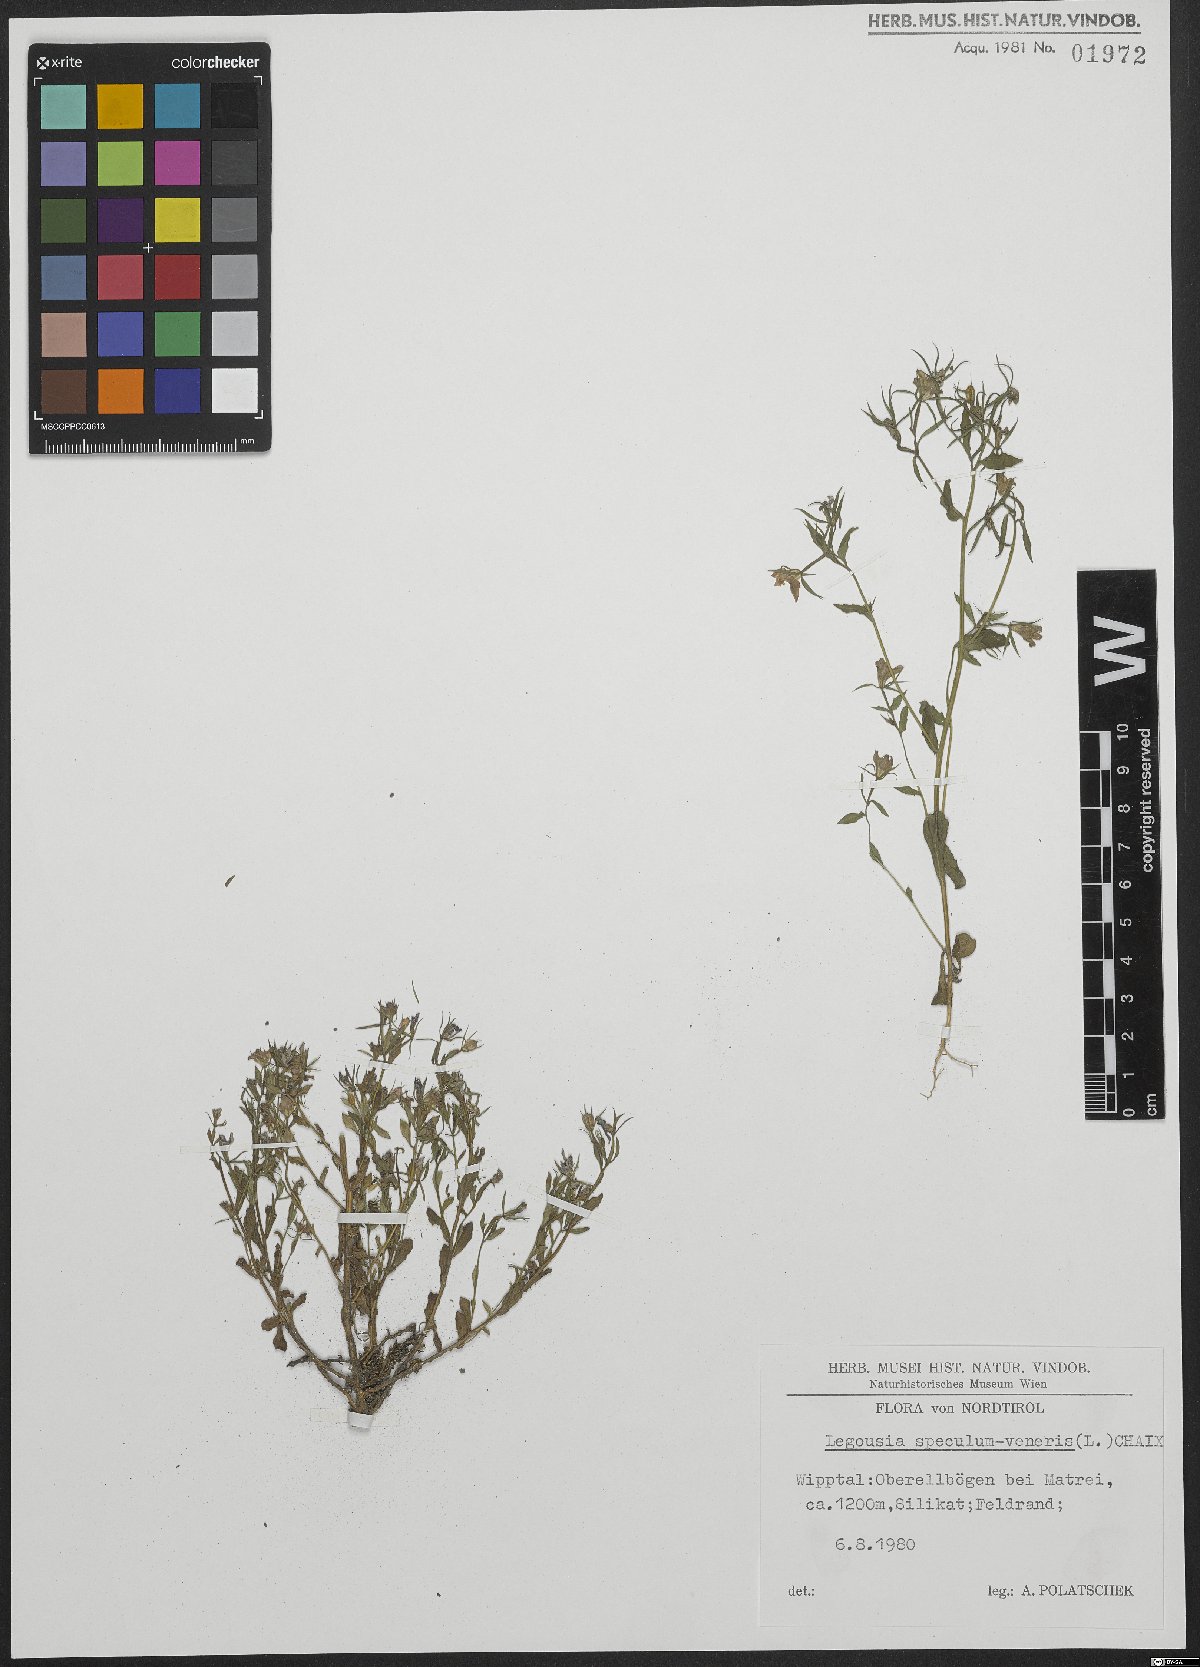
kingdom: Plantae
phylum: Tracheophyta
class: Magnoliopsida
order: Asterales
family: Campanulaceae
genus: Legousia
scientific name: Legousia speculum-veneris
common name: Large venus's-looking-glass
